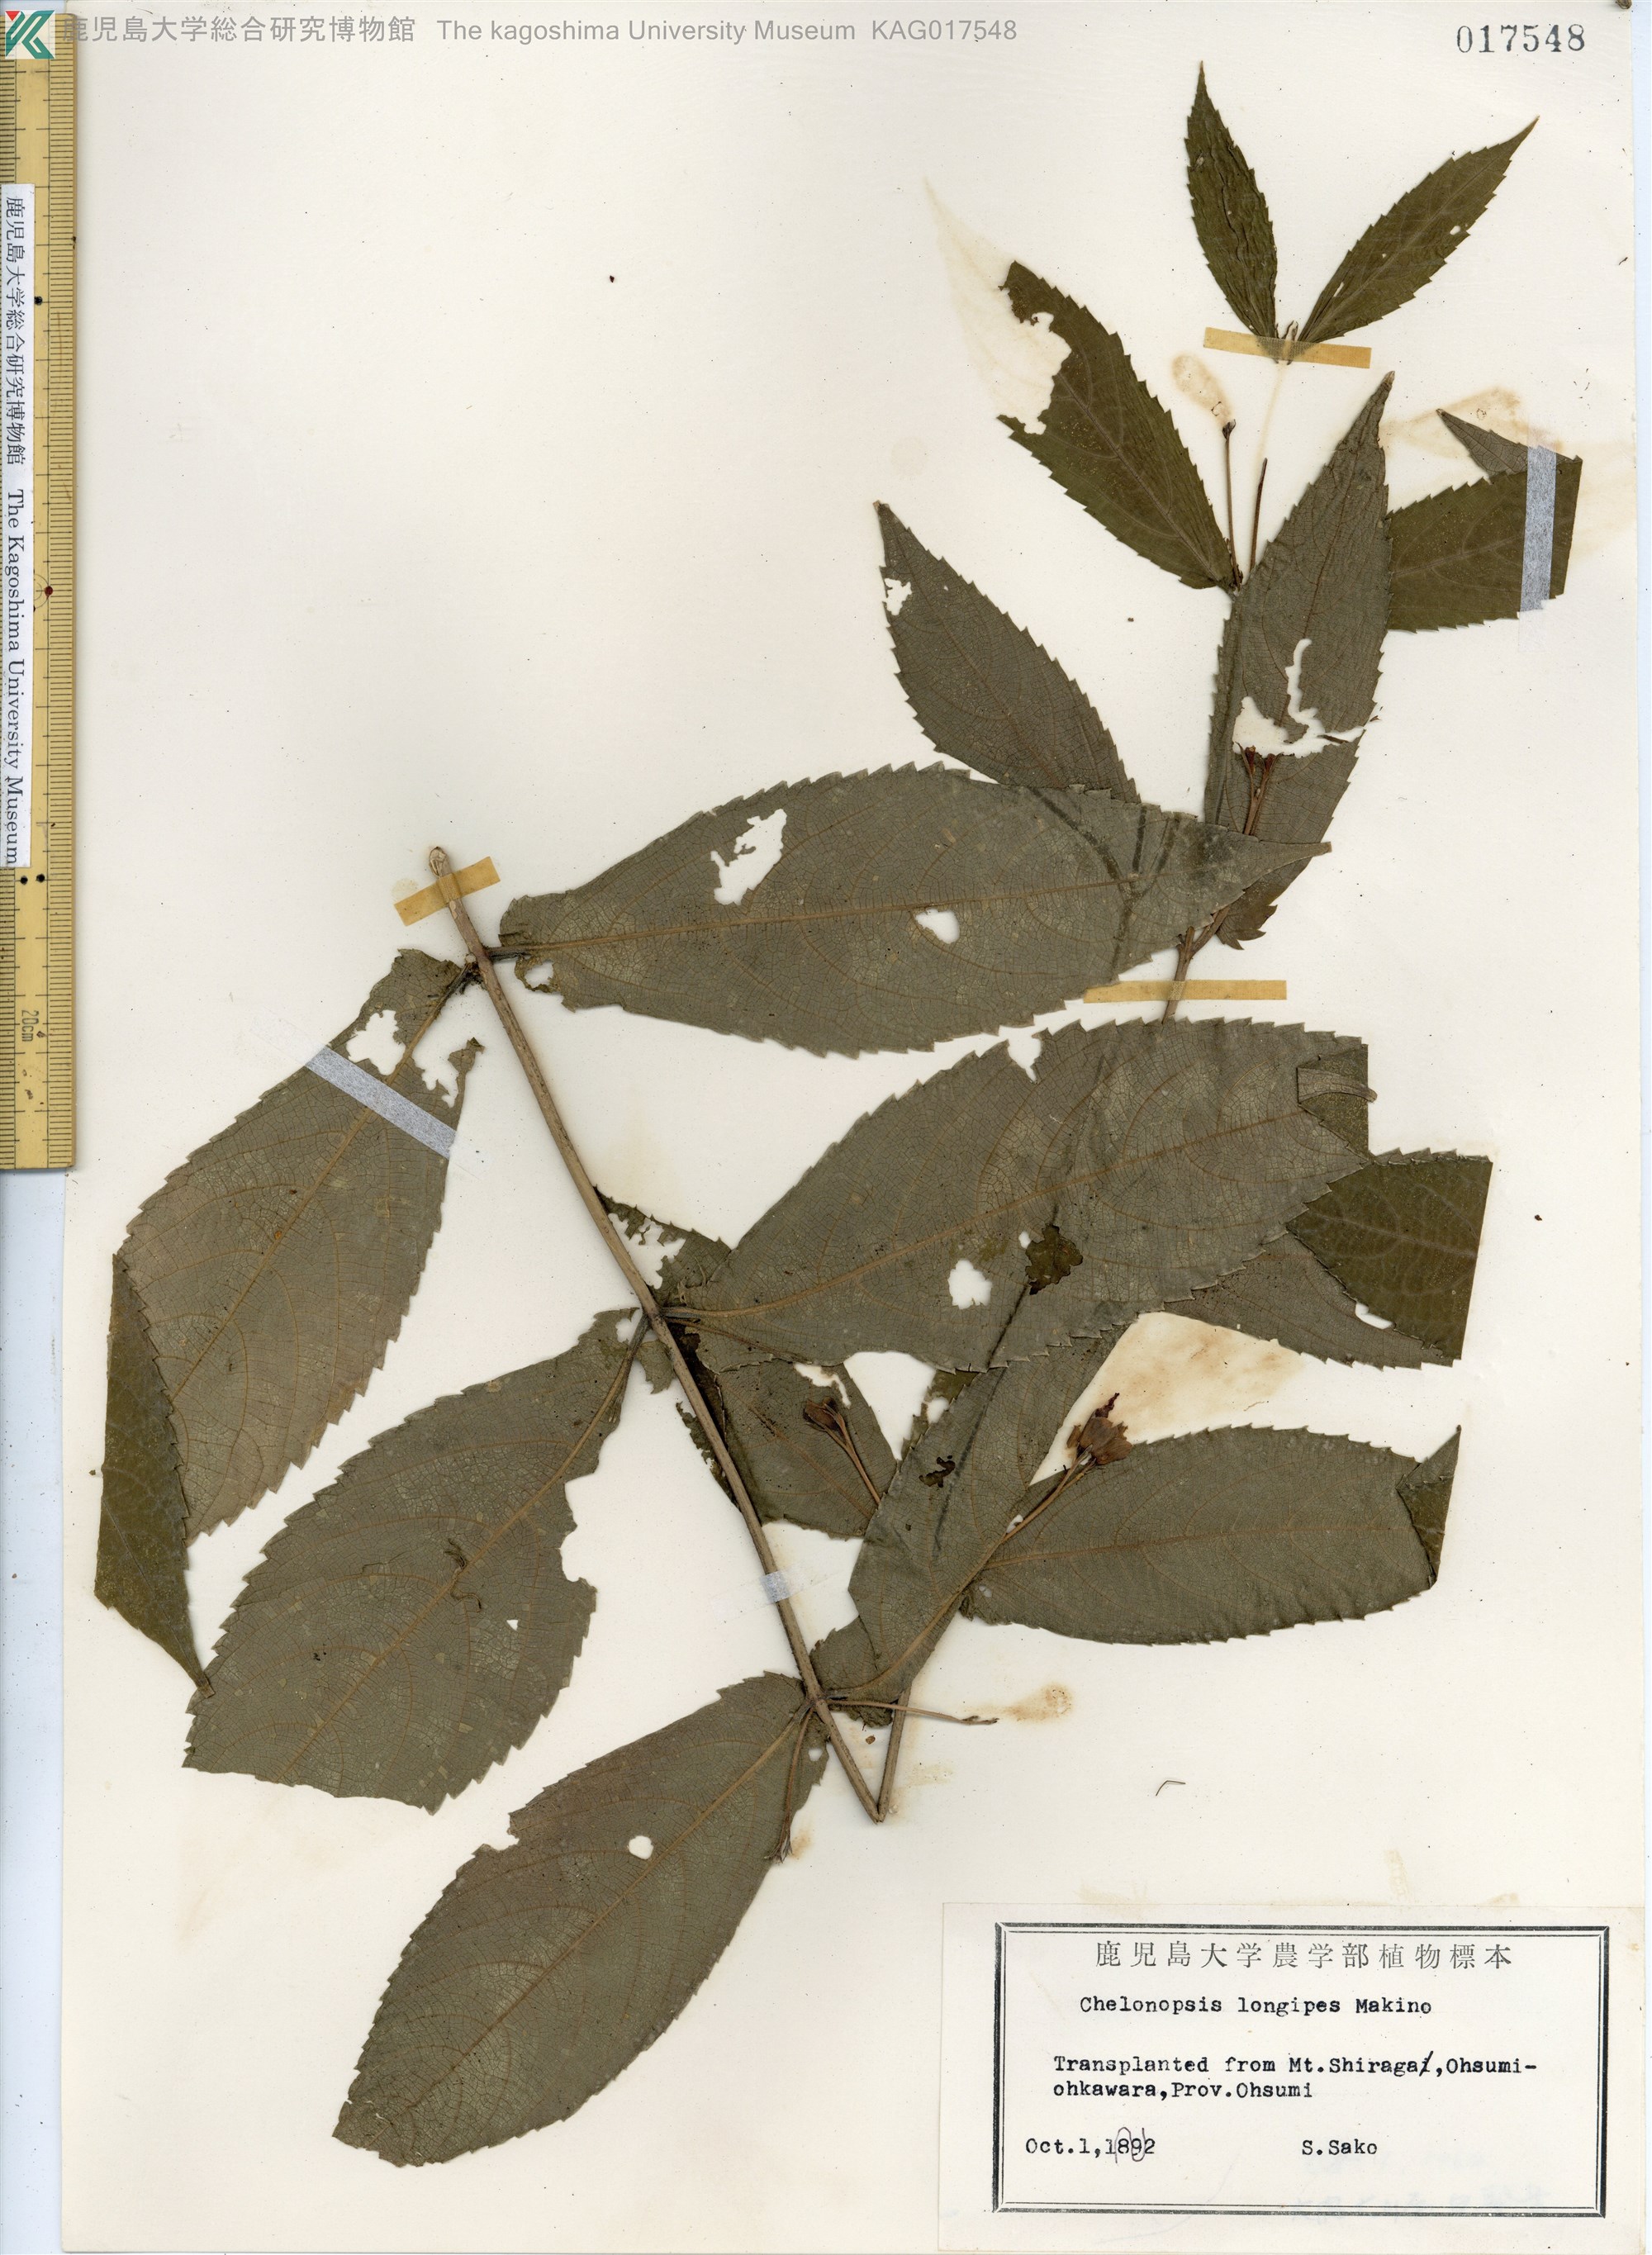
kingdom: Plantae
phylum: Tracheophyta
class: Magnoliopsida
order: Lamiales
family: Lamiaceae
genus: Chelonopsis
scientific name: Chelonopsis longipes
